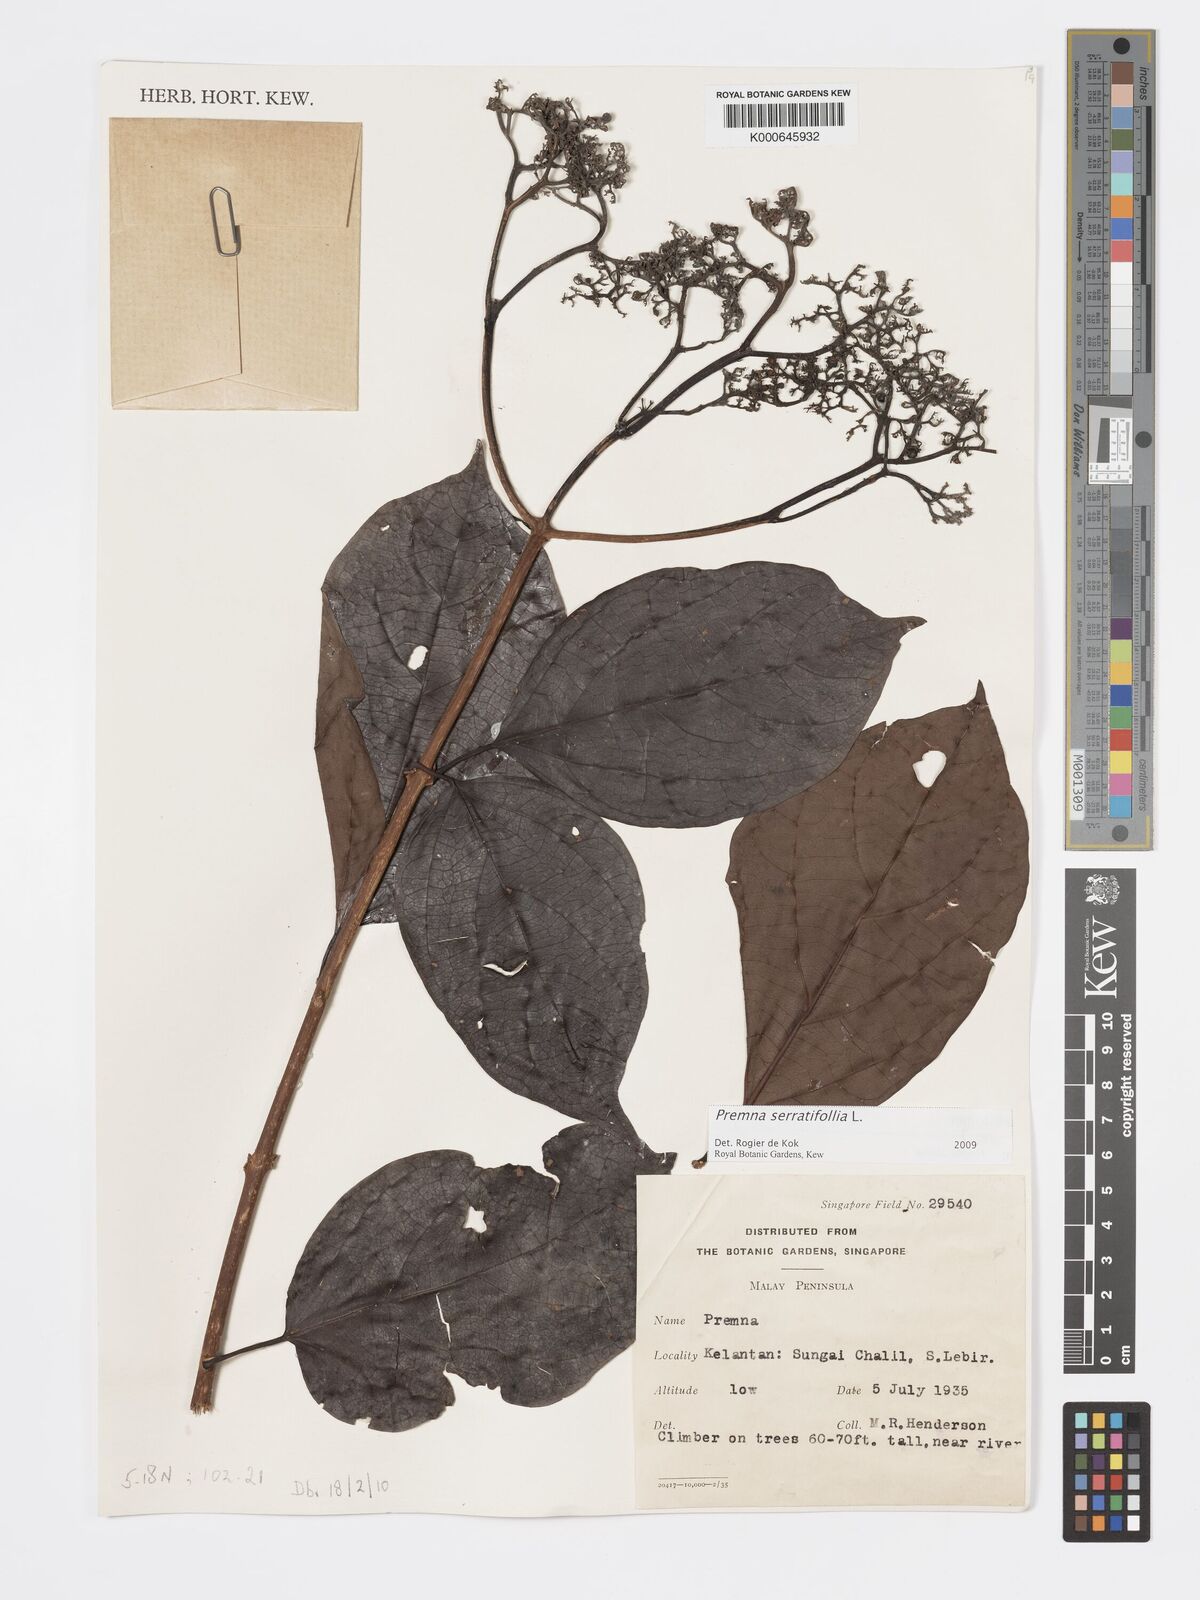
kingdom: Plantae
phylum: Tracheophyta
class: Magnoliopsida
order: Lamiales
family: Lamiaceae
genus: Premna
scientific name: Premna serratifolia
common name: Bastard guelder
